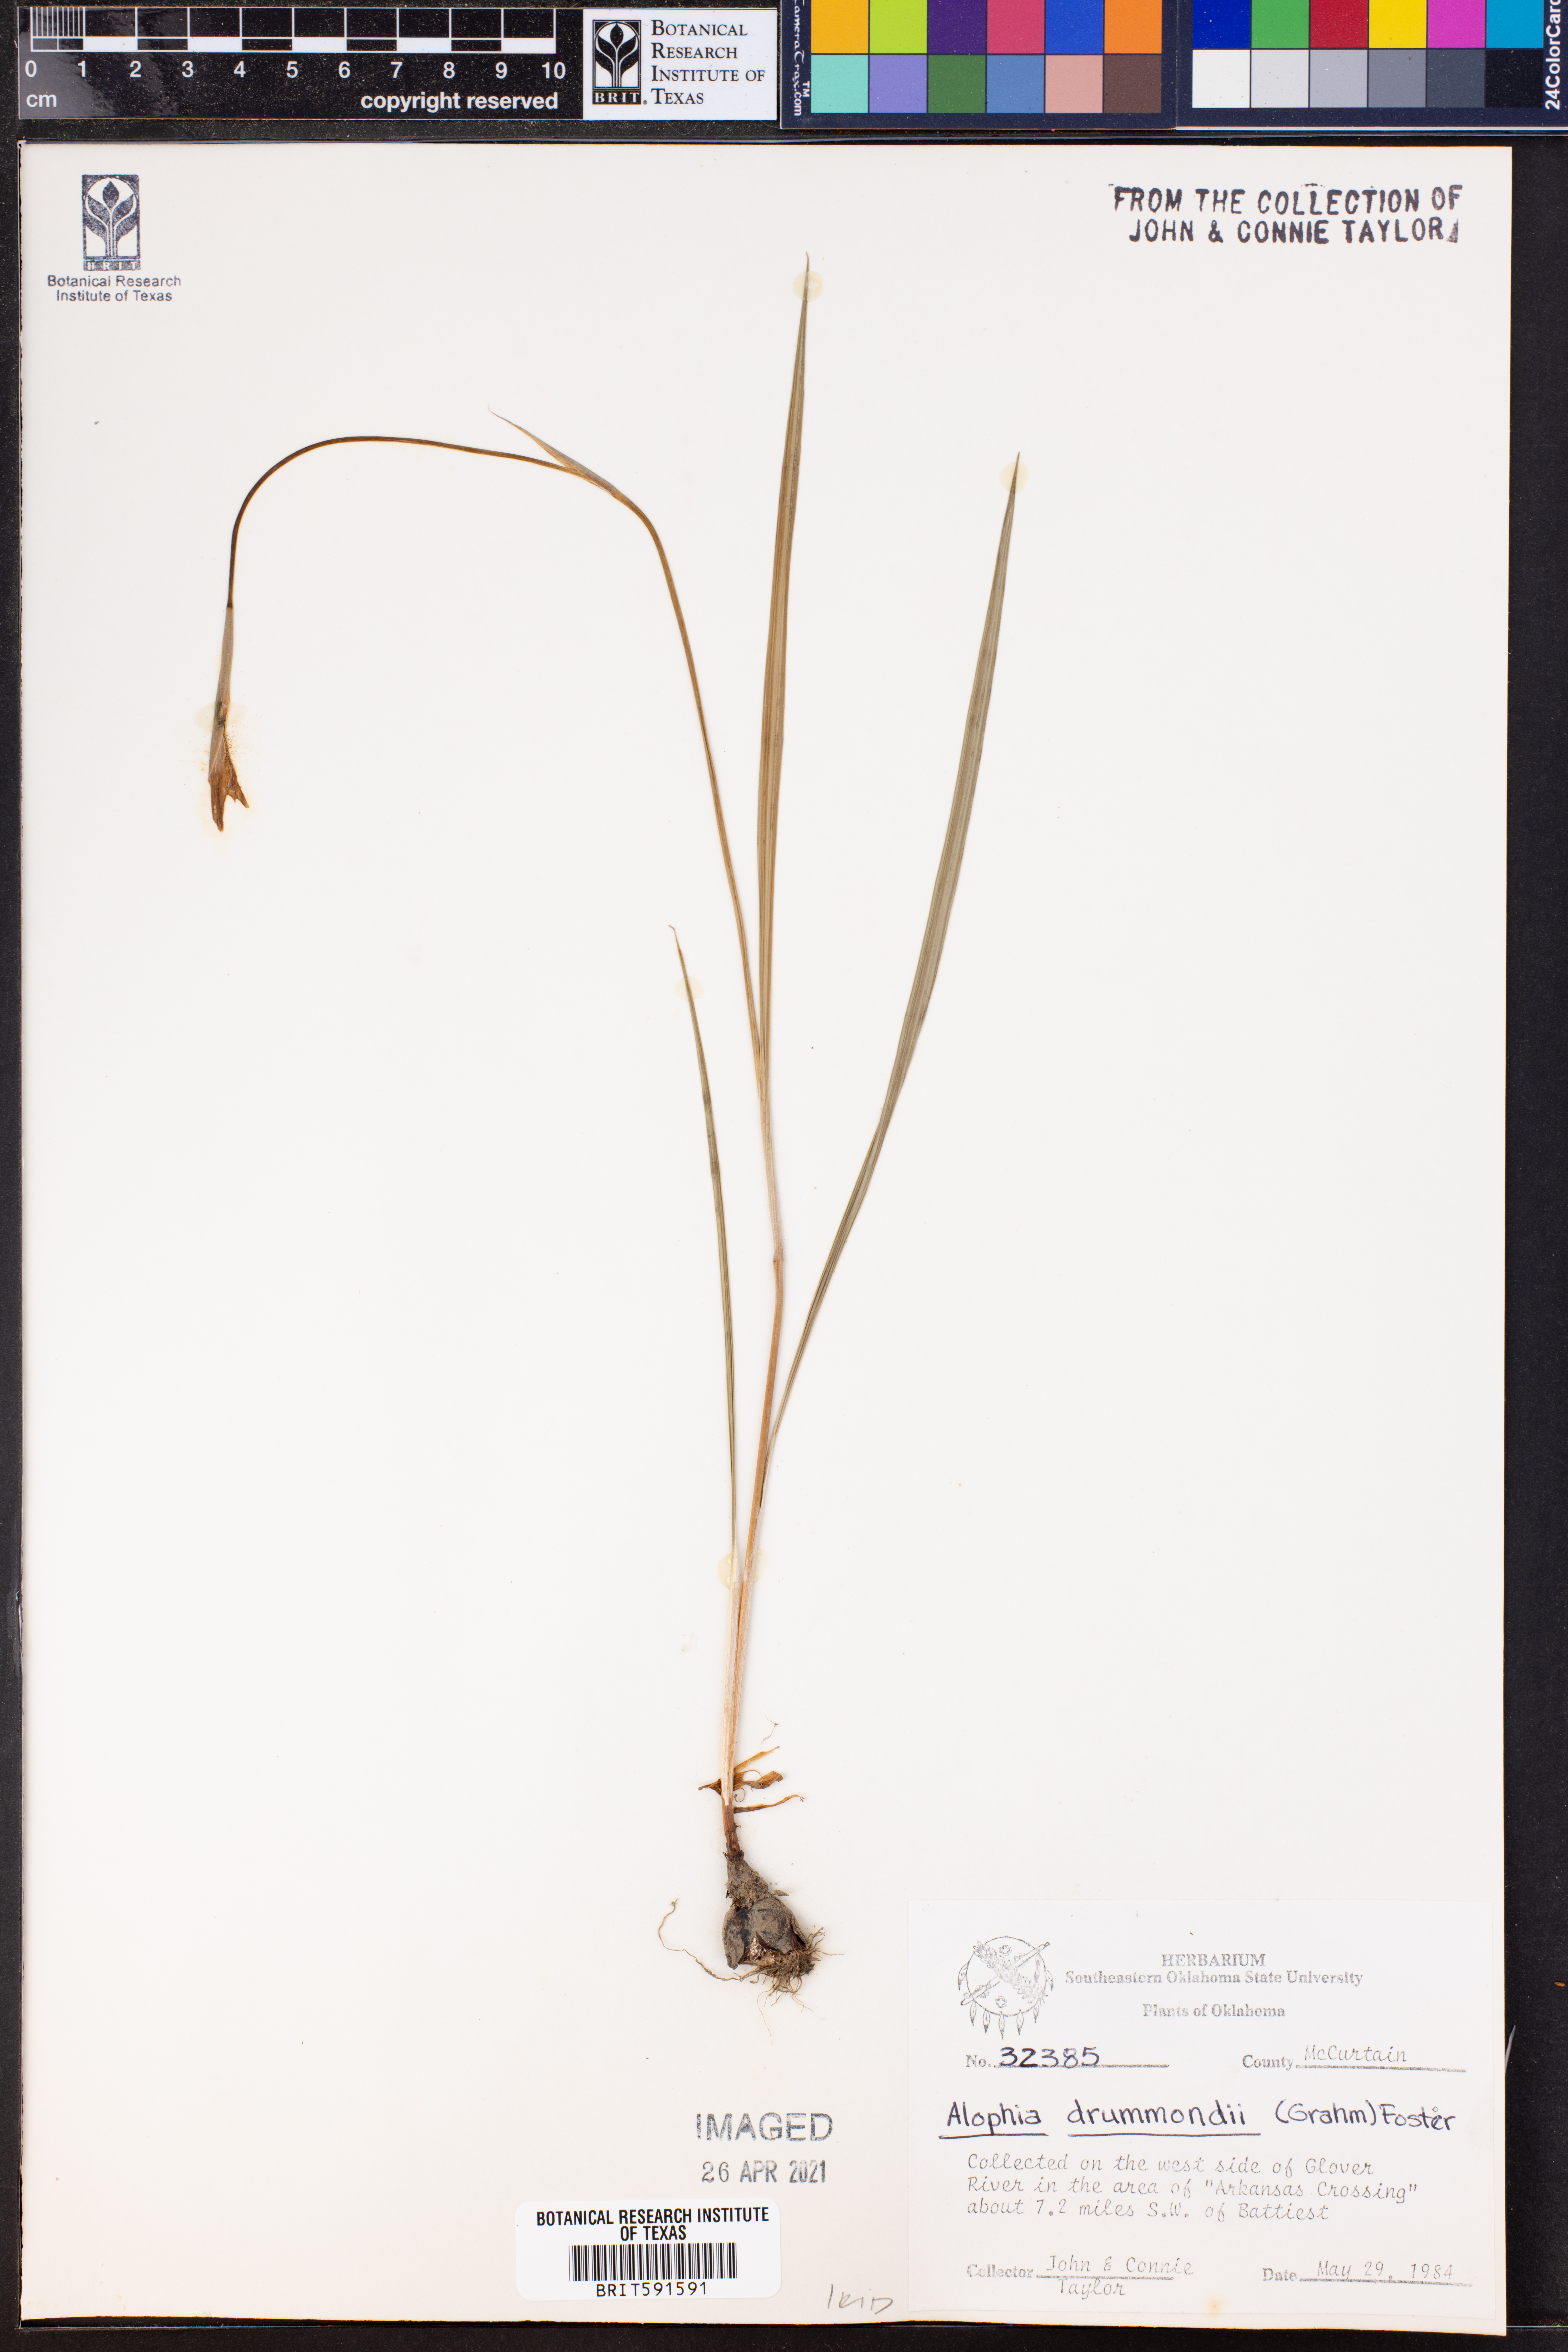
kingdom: Plantae
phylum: Tracheophyta
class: Liliopsida
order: Asparagales
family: Iridaceae
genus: Alophia
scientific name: Alophia drummondii
